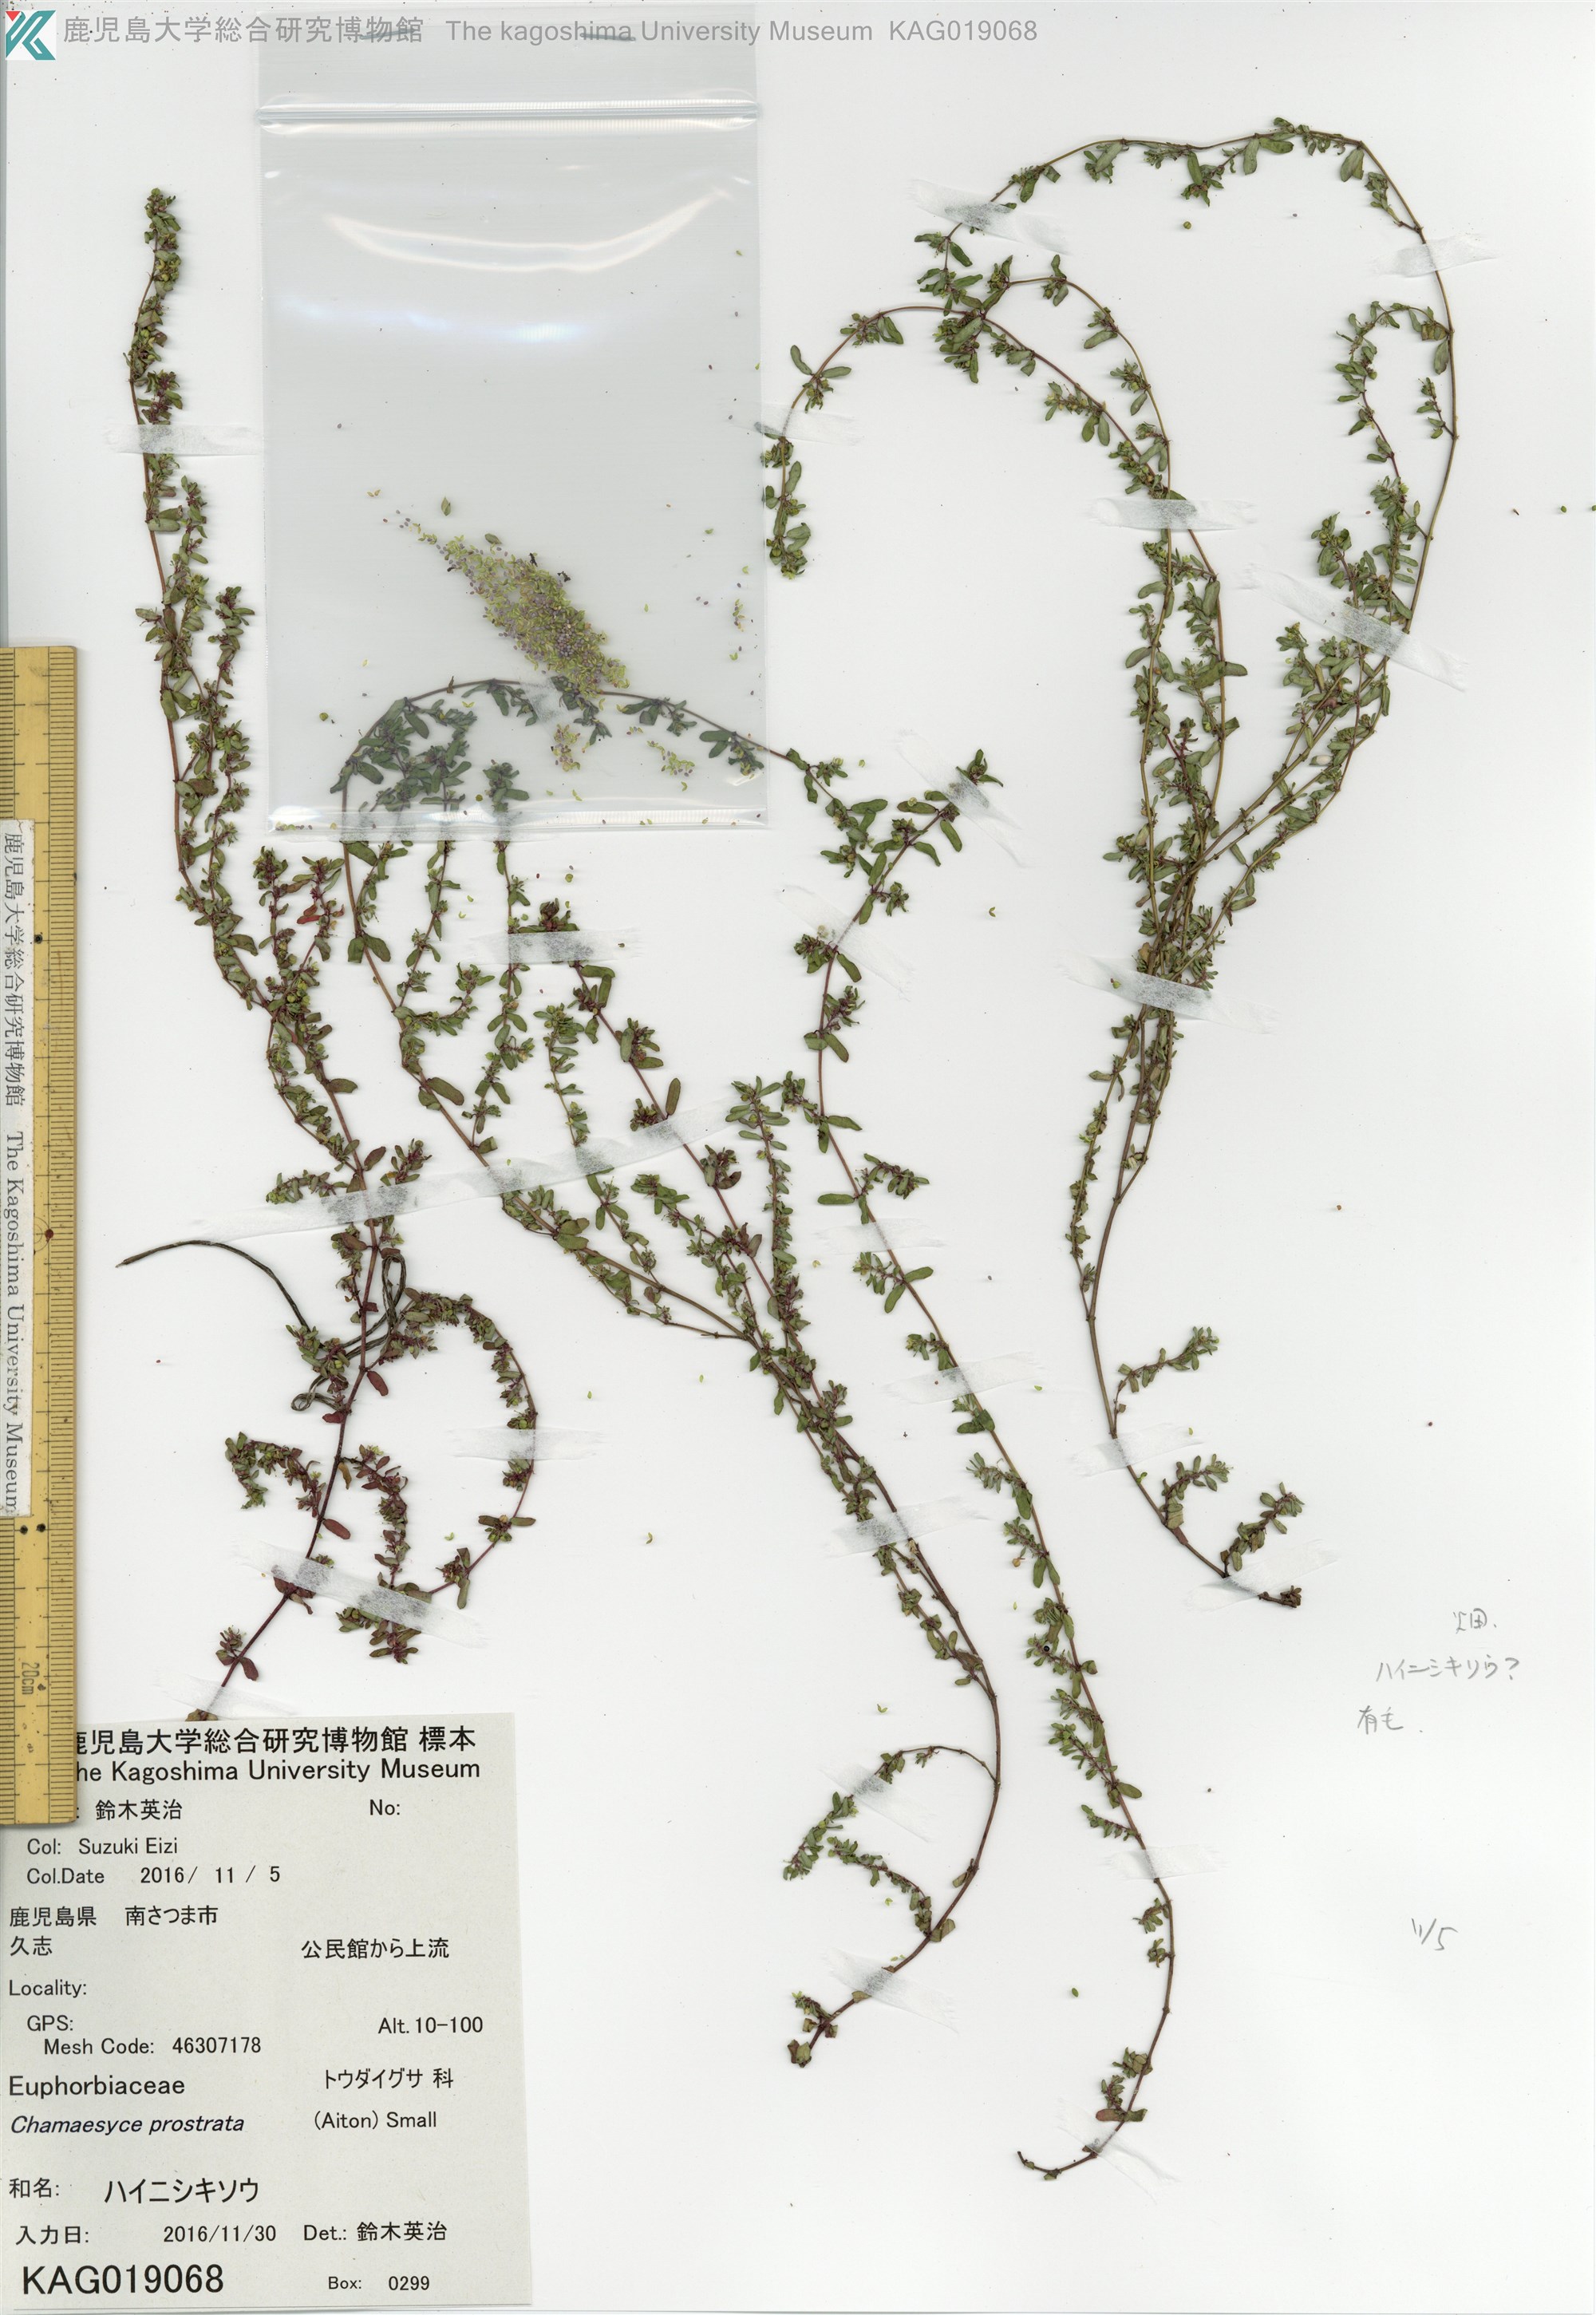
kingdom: Plantae
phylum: Tracheophyta
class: Magnoliopsida
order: Malpighiales
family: Euphorbiaceae
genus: Euphorbia
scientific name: Euphorbia prostrata
